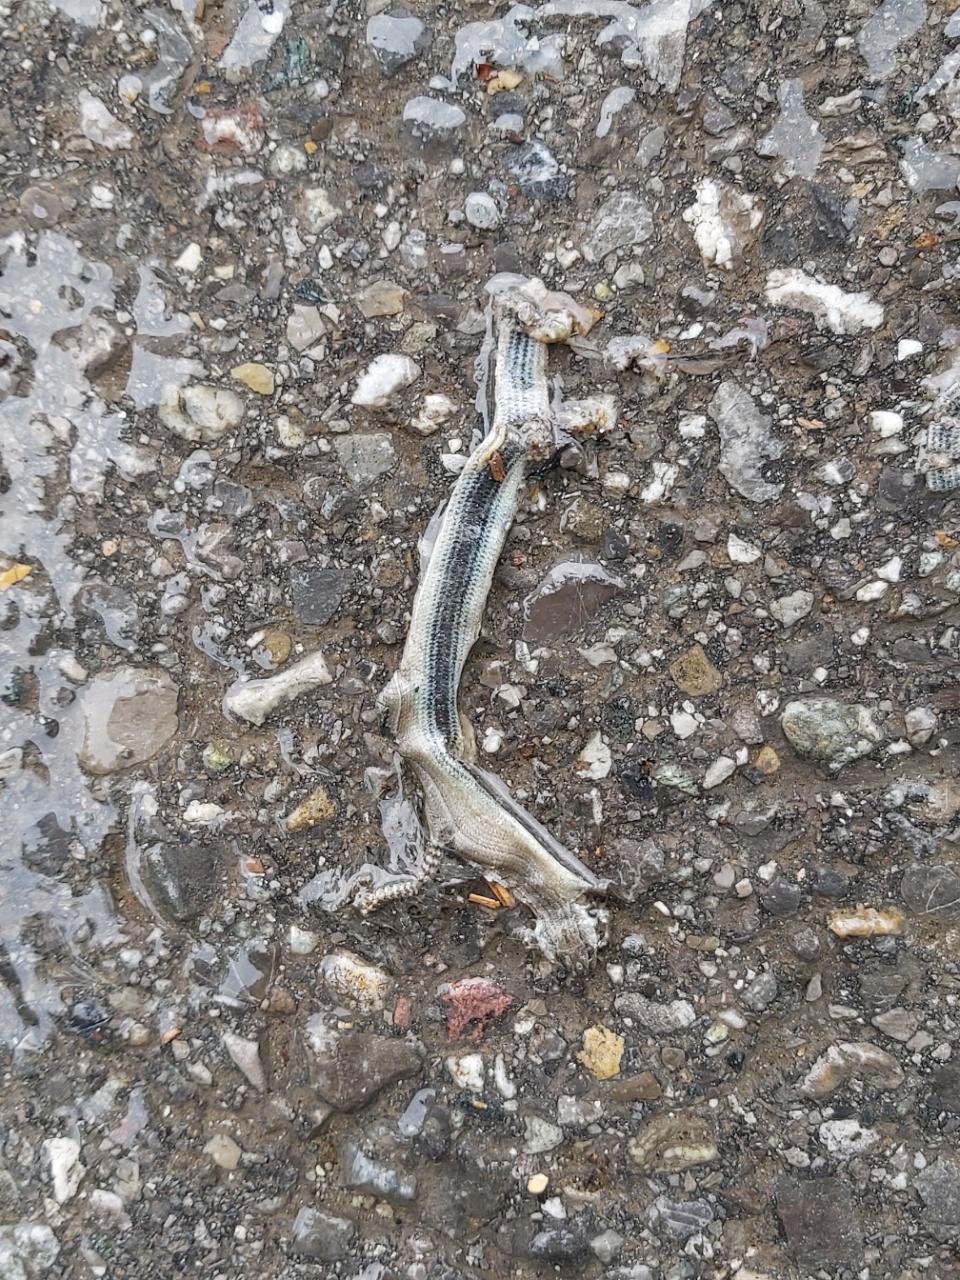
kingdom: Animalia
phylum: Chordata
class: Squamata
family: Anguidae
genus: Anguis
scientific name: Anguis fragilis
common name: Slow worm
